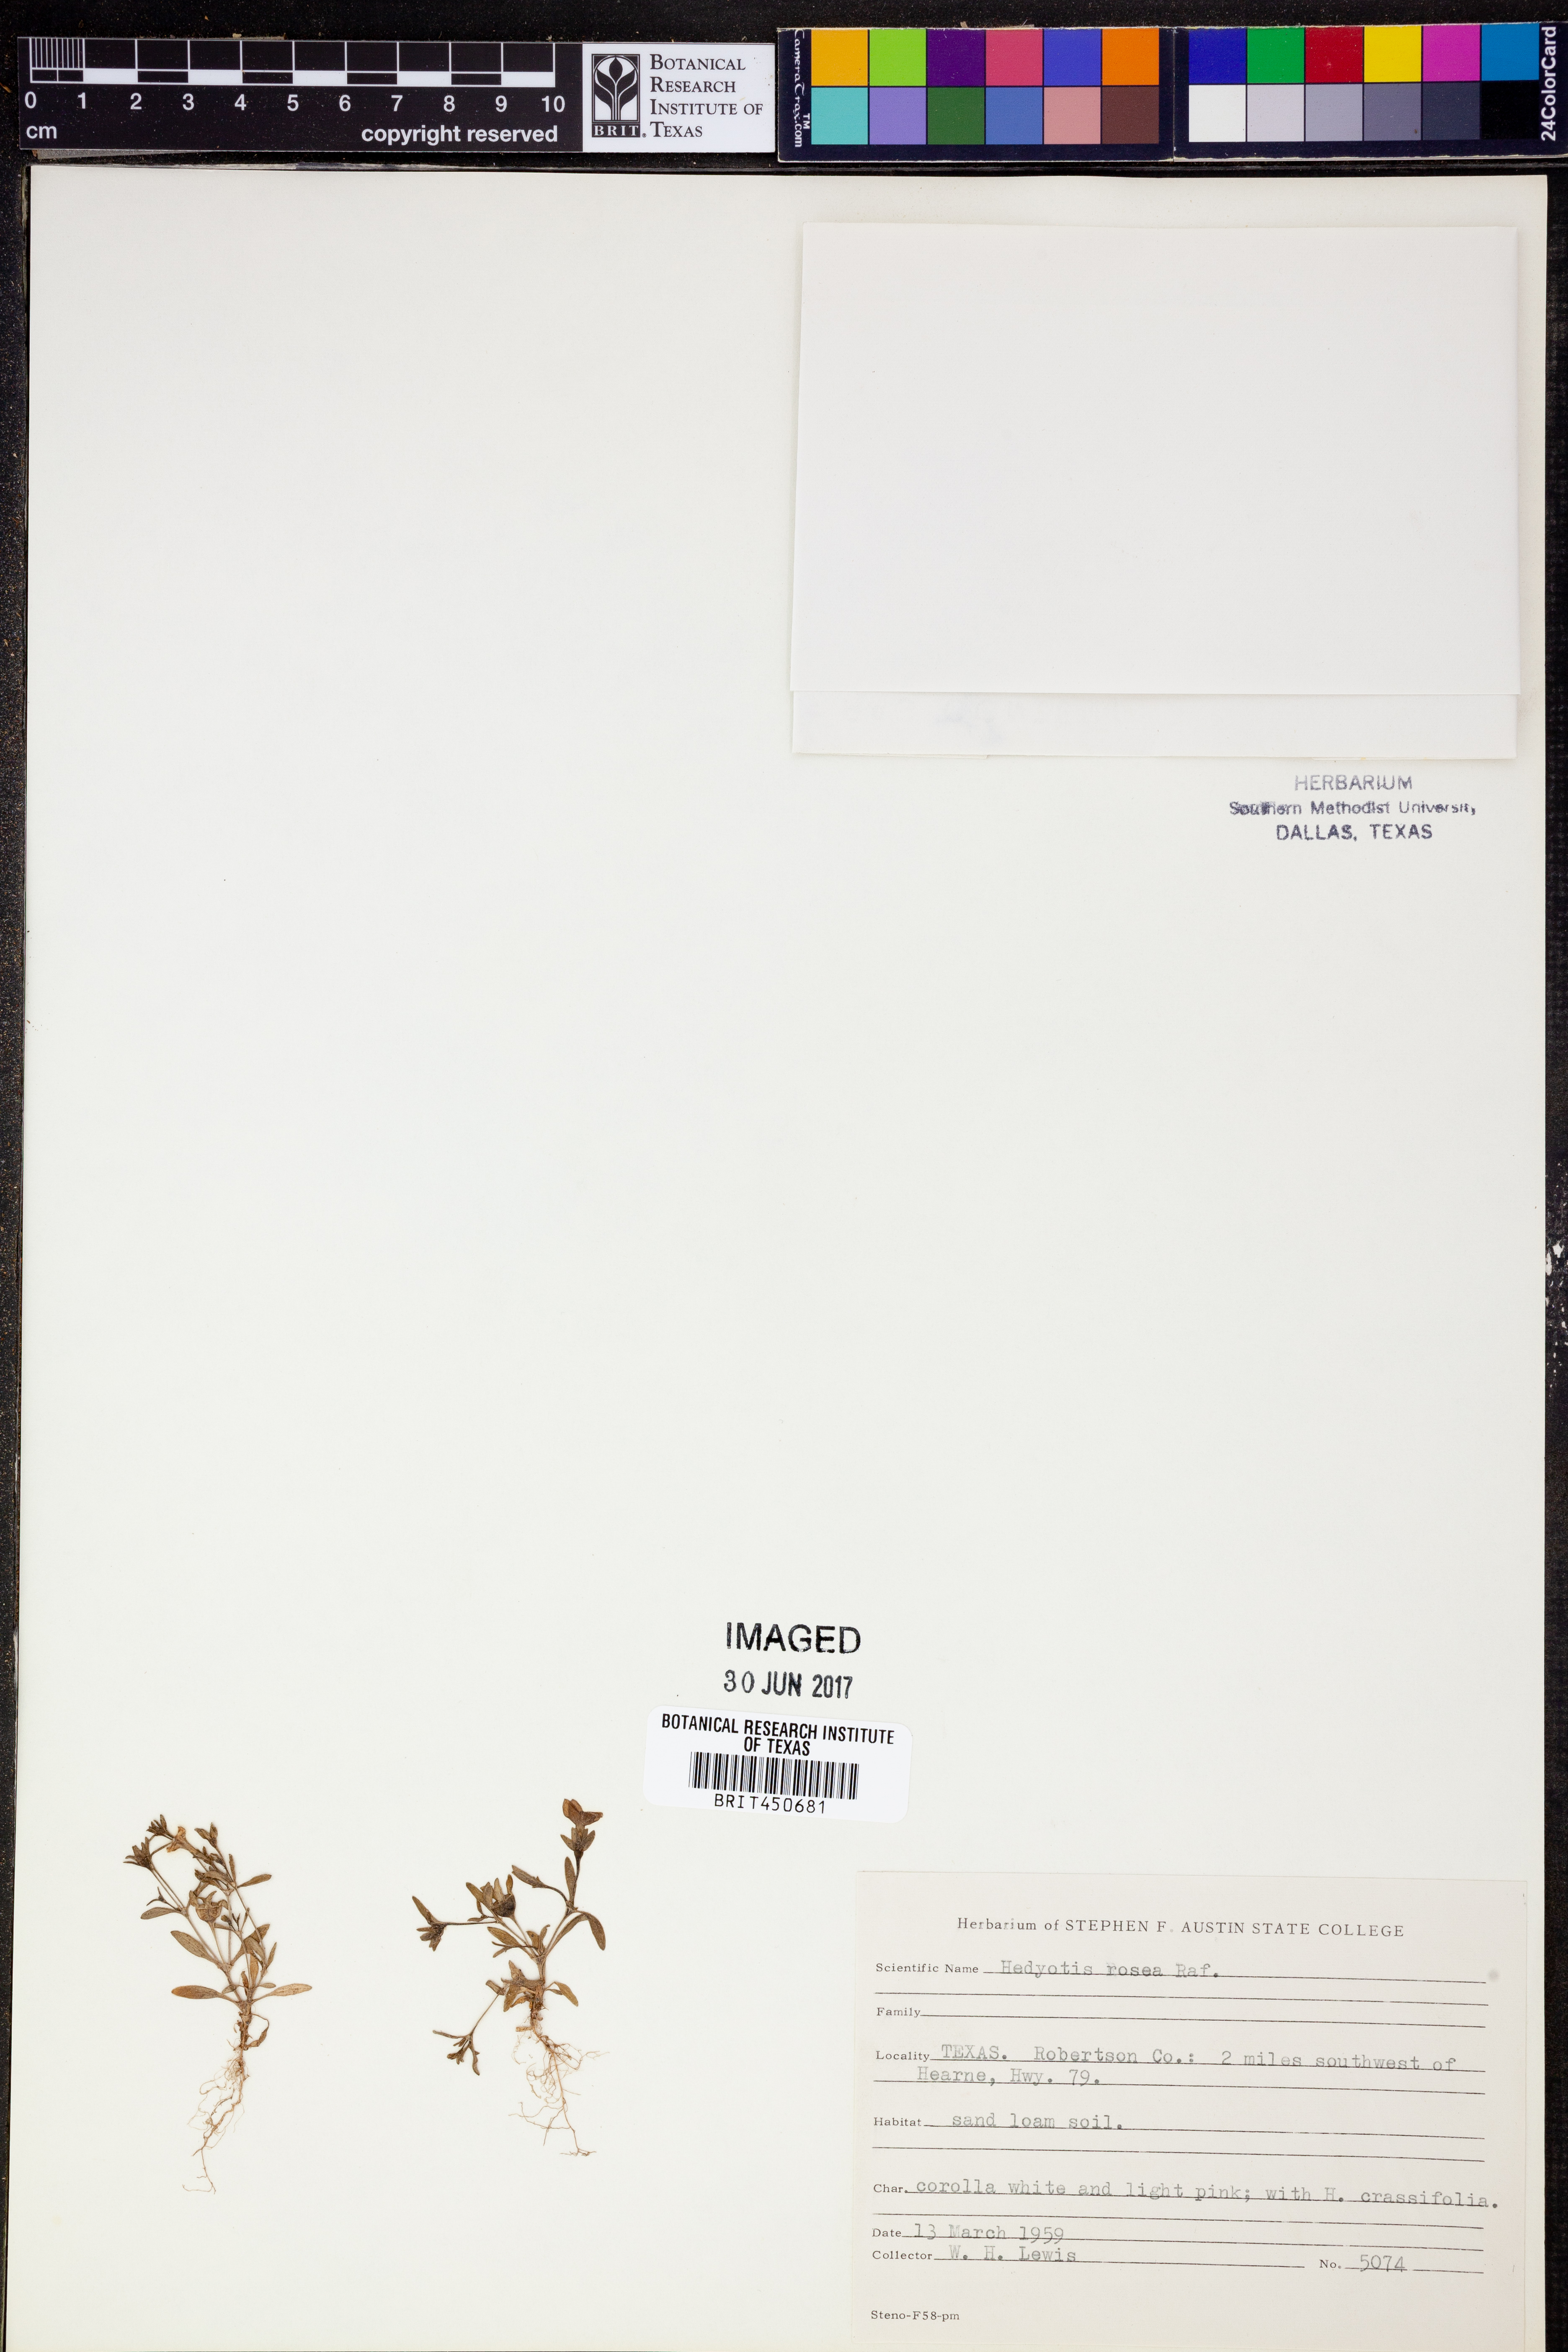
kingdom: Plantae
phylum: Tracheophyta
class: Magnoliopsida
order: Gentianales
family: Rubiaceae
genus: Houstonia
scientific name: Houstonia rosea
